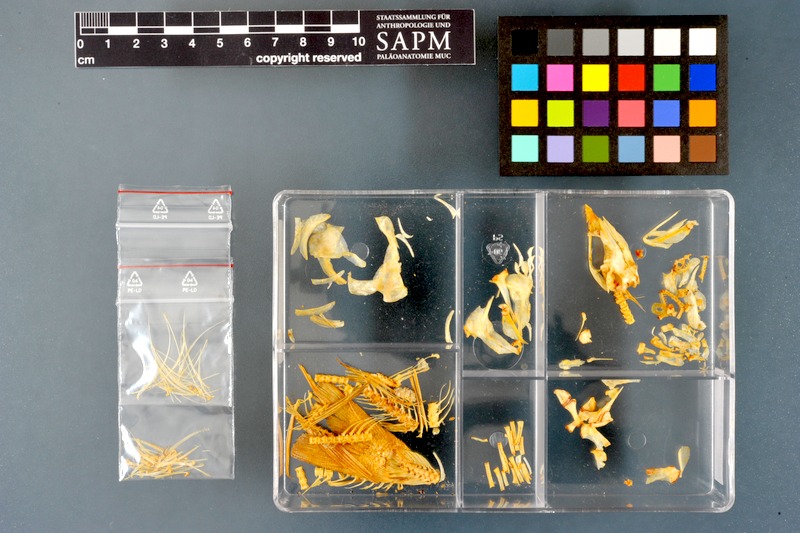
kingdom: Animalia
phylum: Chordata
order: Salmoniformes
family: Salmonidae
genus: Thymallus
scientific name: Thymallus thymallus
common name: Grayling
